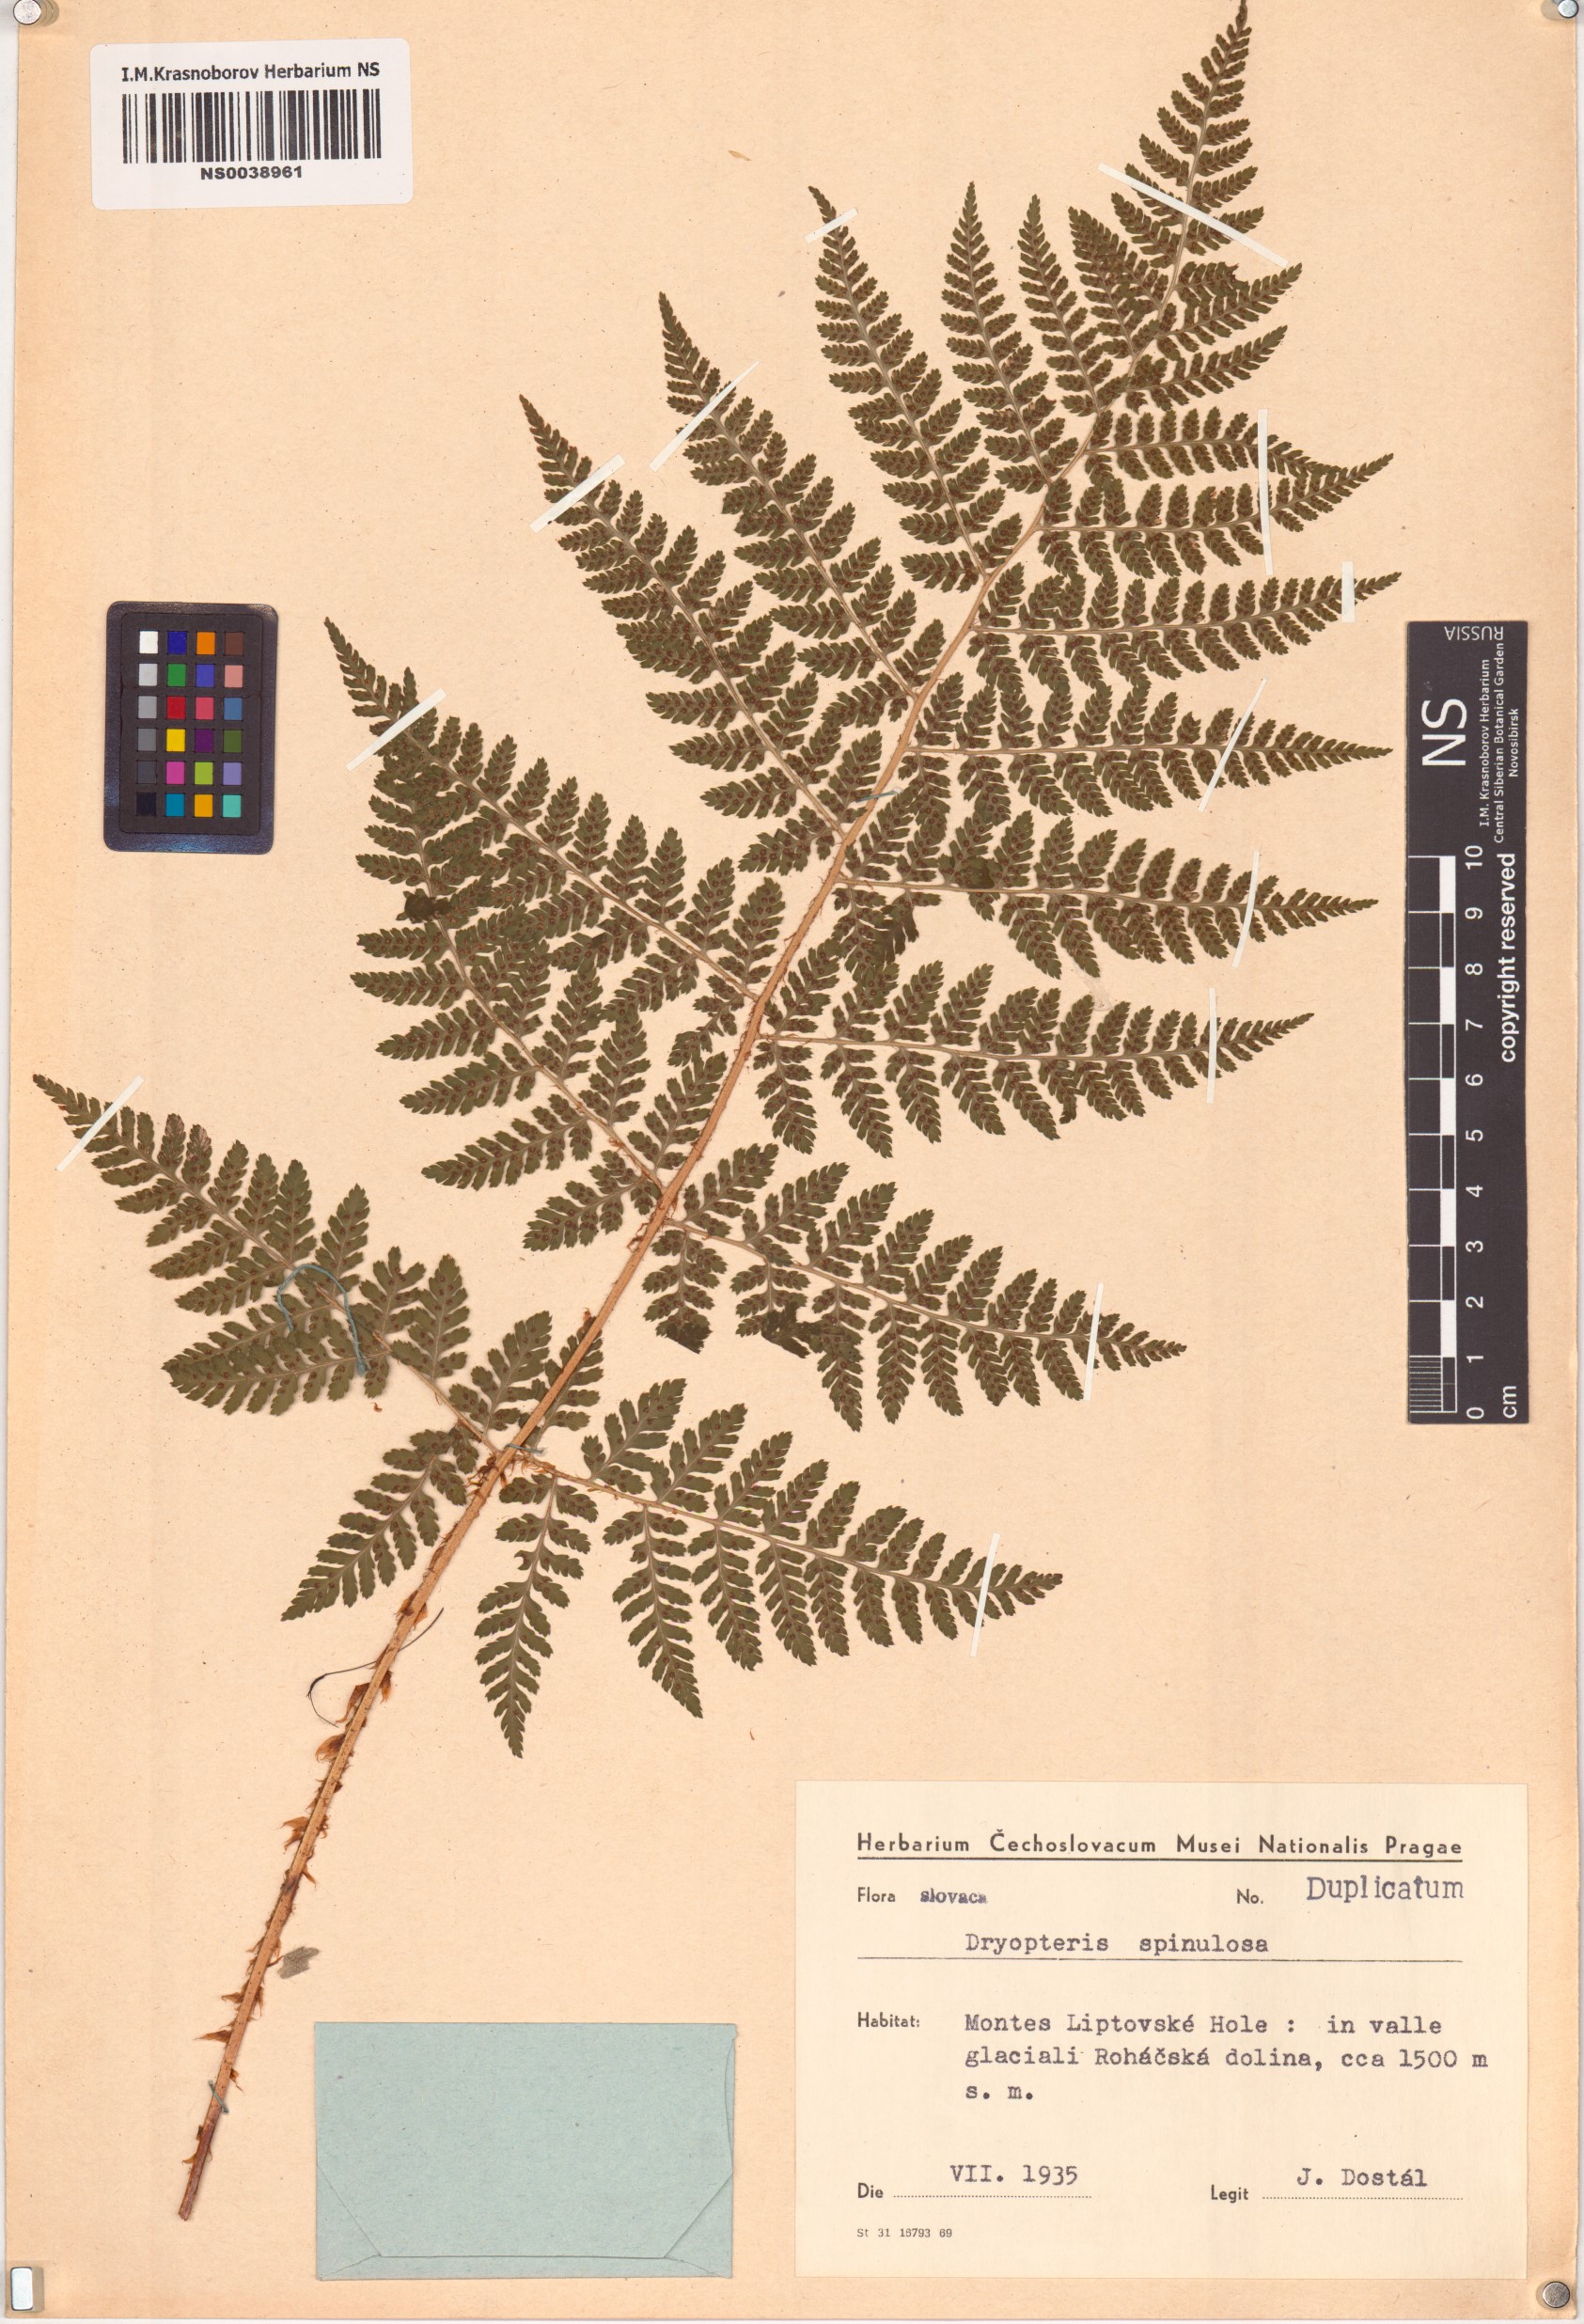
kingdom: Plantae
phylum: Tracheophyta
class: Polypodiopsida
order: Polypodiales
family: Dryopteridaceae
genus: Dryopteris
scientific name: Dryopteris carthusiana
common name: Narrow buckler-fern
